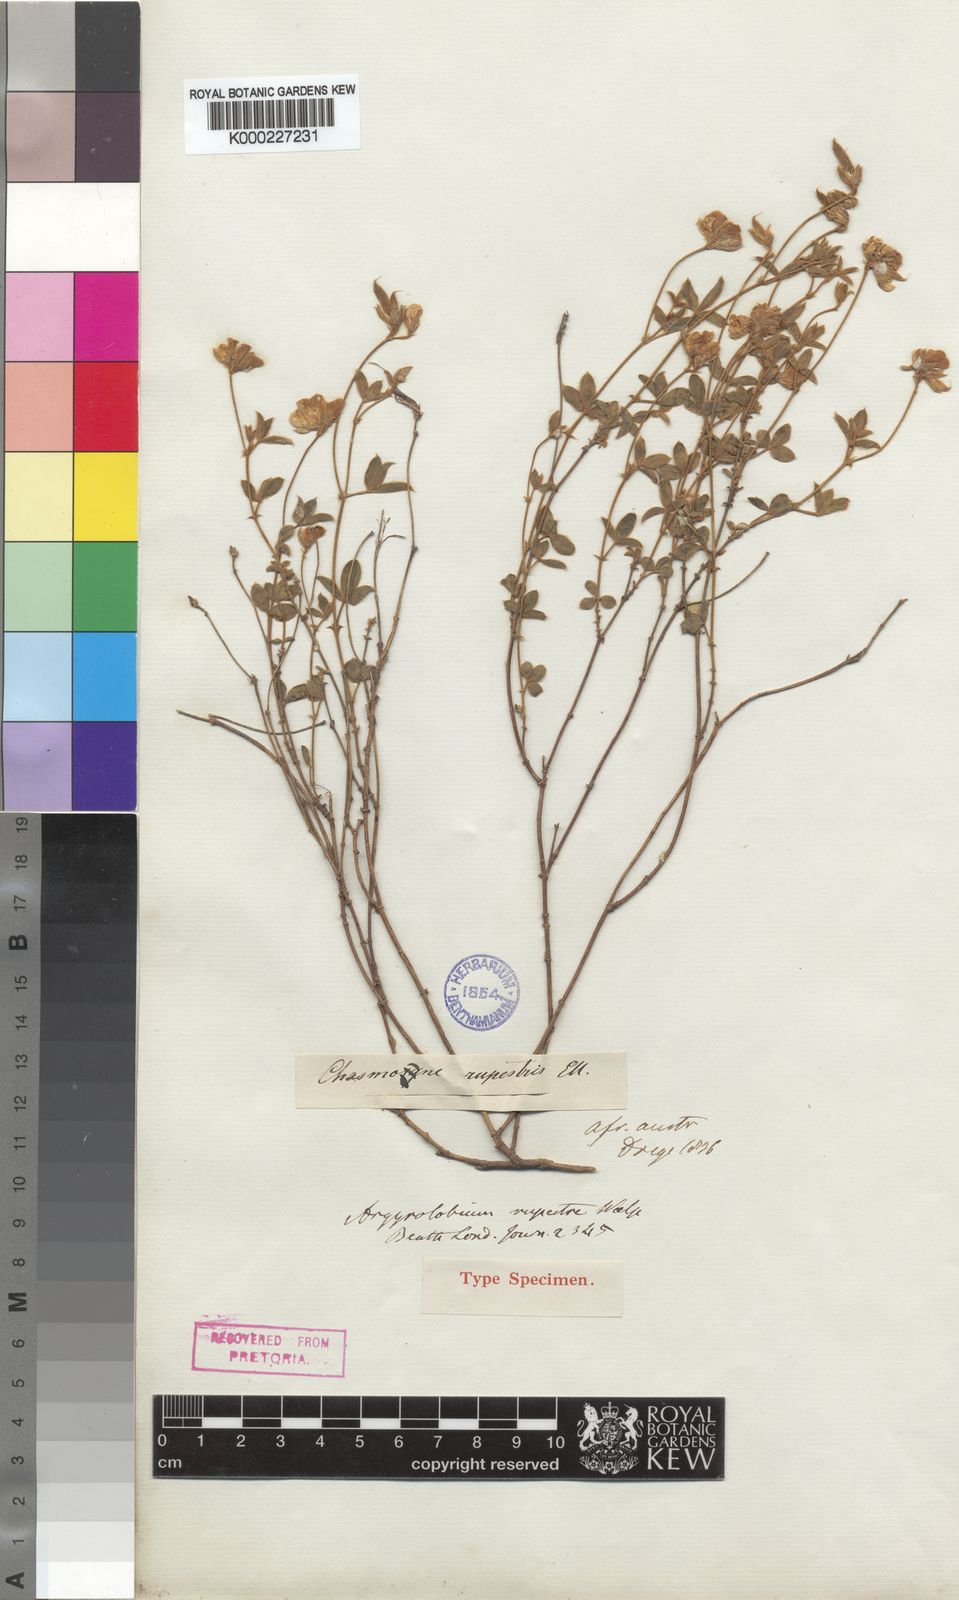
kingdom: Plantae
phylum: Tracheophyta
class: Magnoliopsida
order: Fabales
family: Fabaceae
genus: Argyrolobium
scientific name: Argyrolobium rupestre
